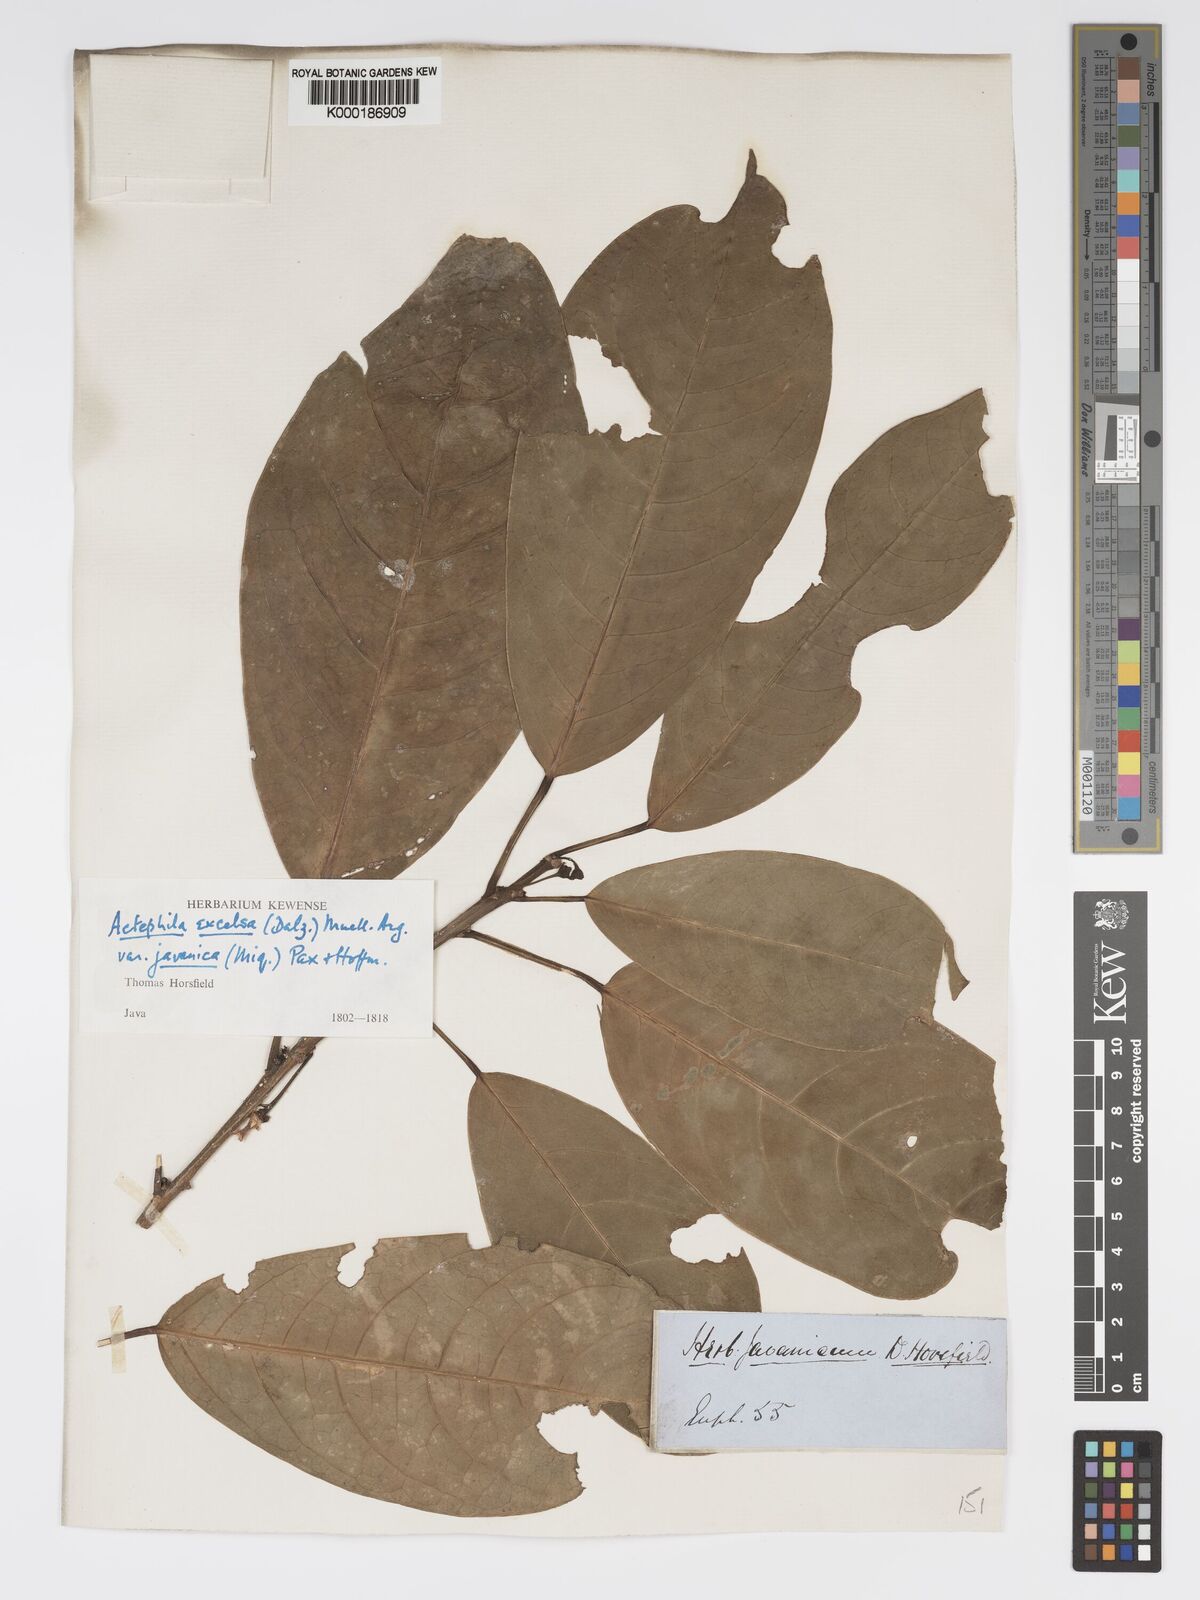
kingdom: Plantae
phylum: Tracheophyta
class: Magnoliopsida
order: Malpighiales
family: Phyllanthaceae
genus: Actephila
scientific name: Actephila
